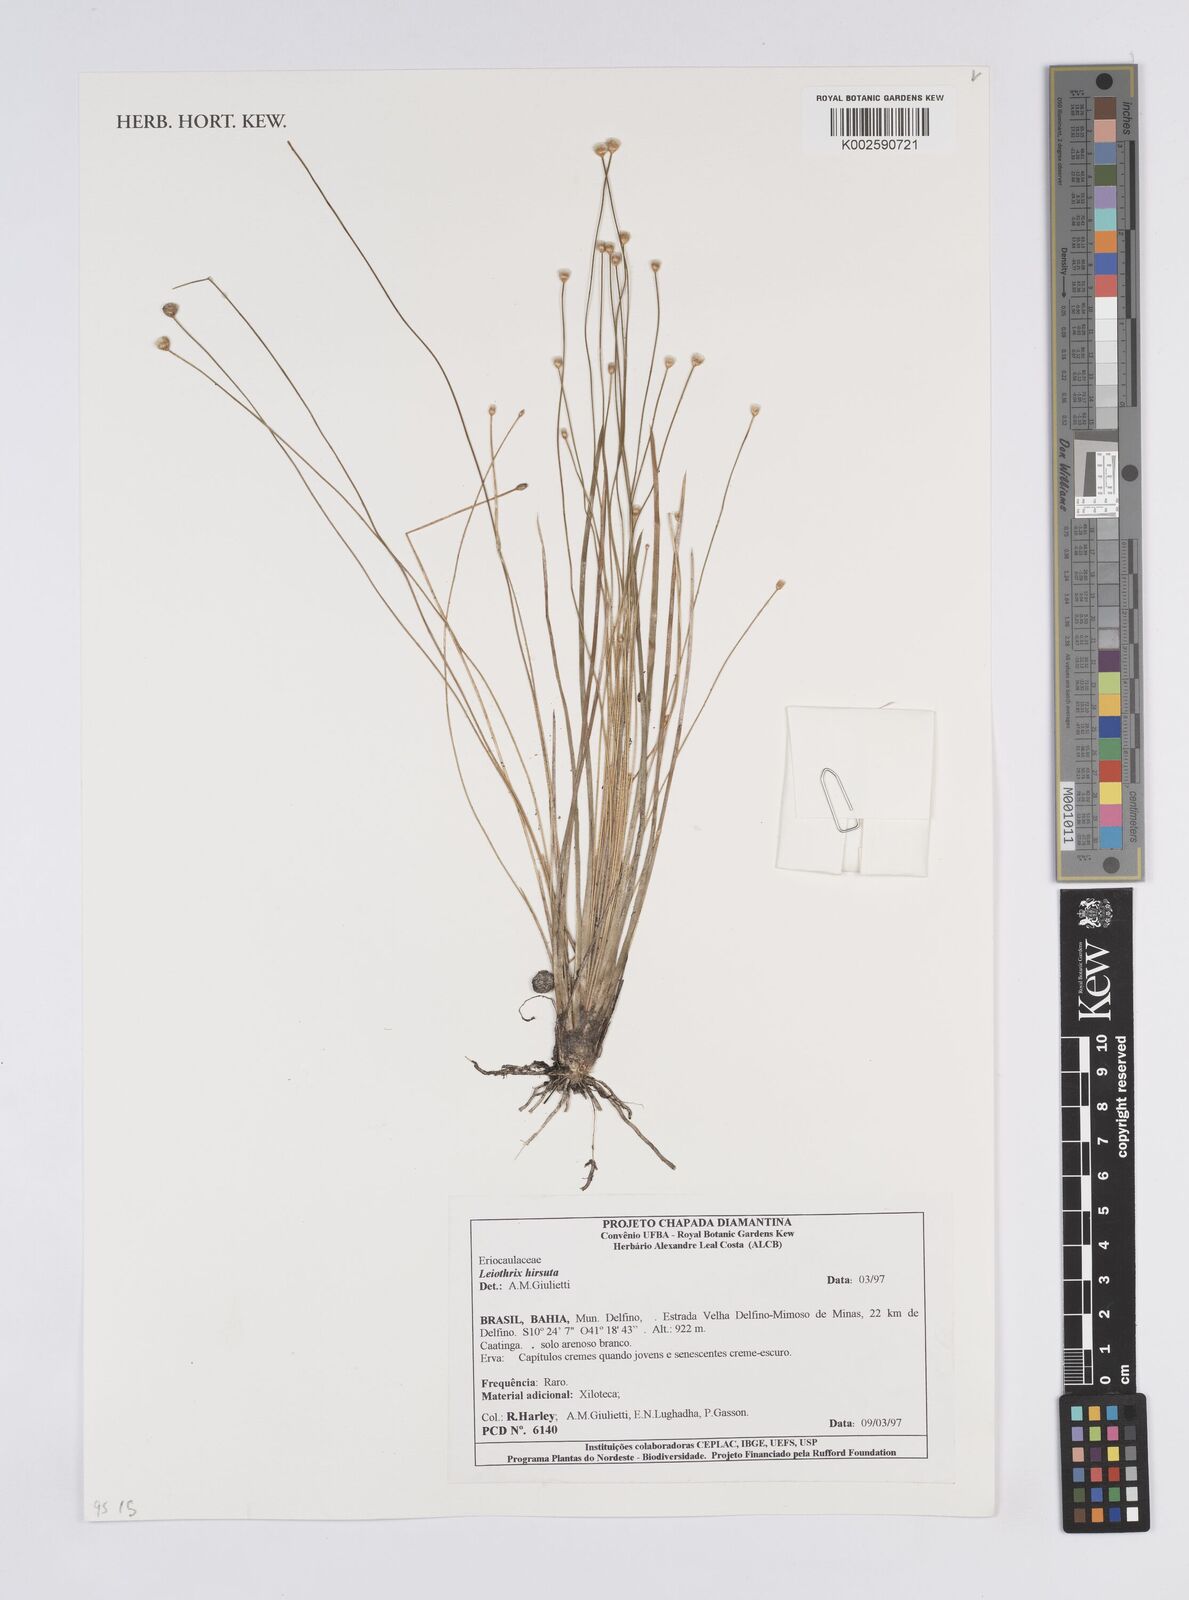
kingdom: Plantae
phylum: Tracheophyta
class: Liliopsida
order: Poales
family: Eriocaulaceae
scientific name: Eriocaulaceae
